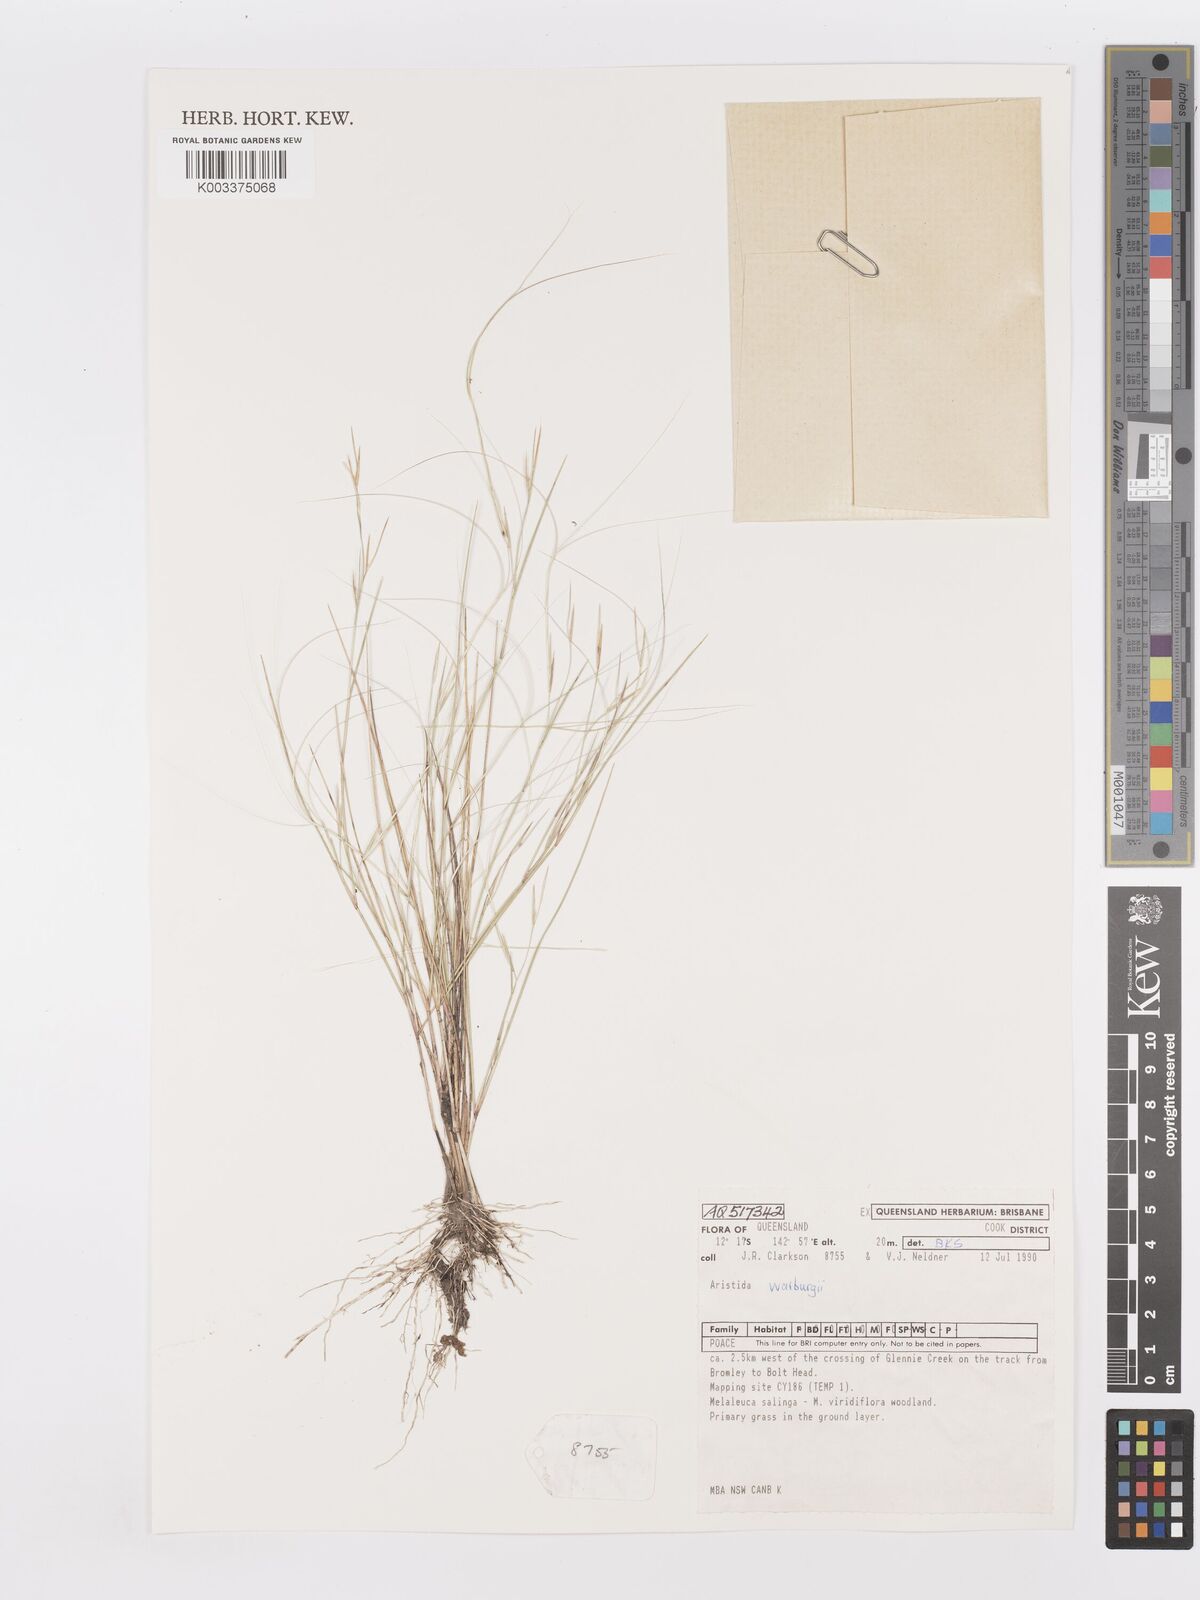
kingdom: Plantae
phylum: Tracheophyta
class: Liliopsida
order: Poales
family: Poaceae
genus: Aristida
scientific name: Aristida warburgii
